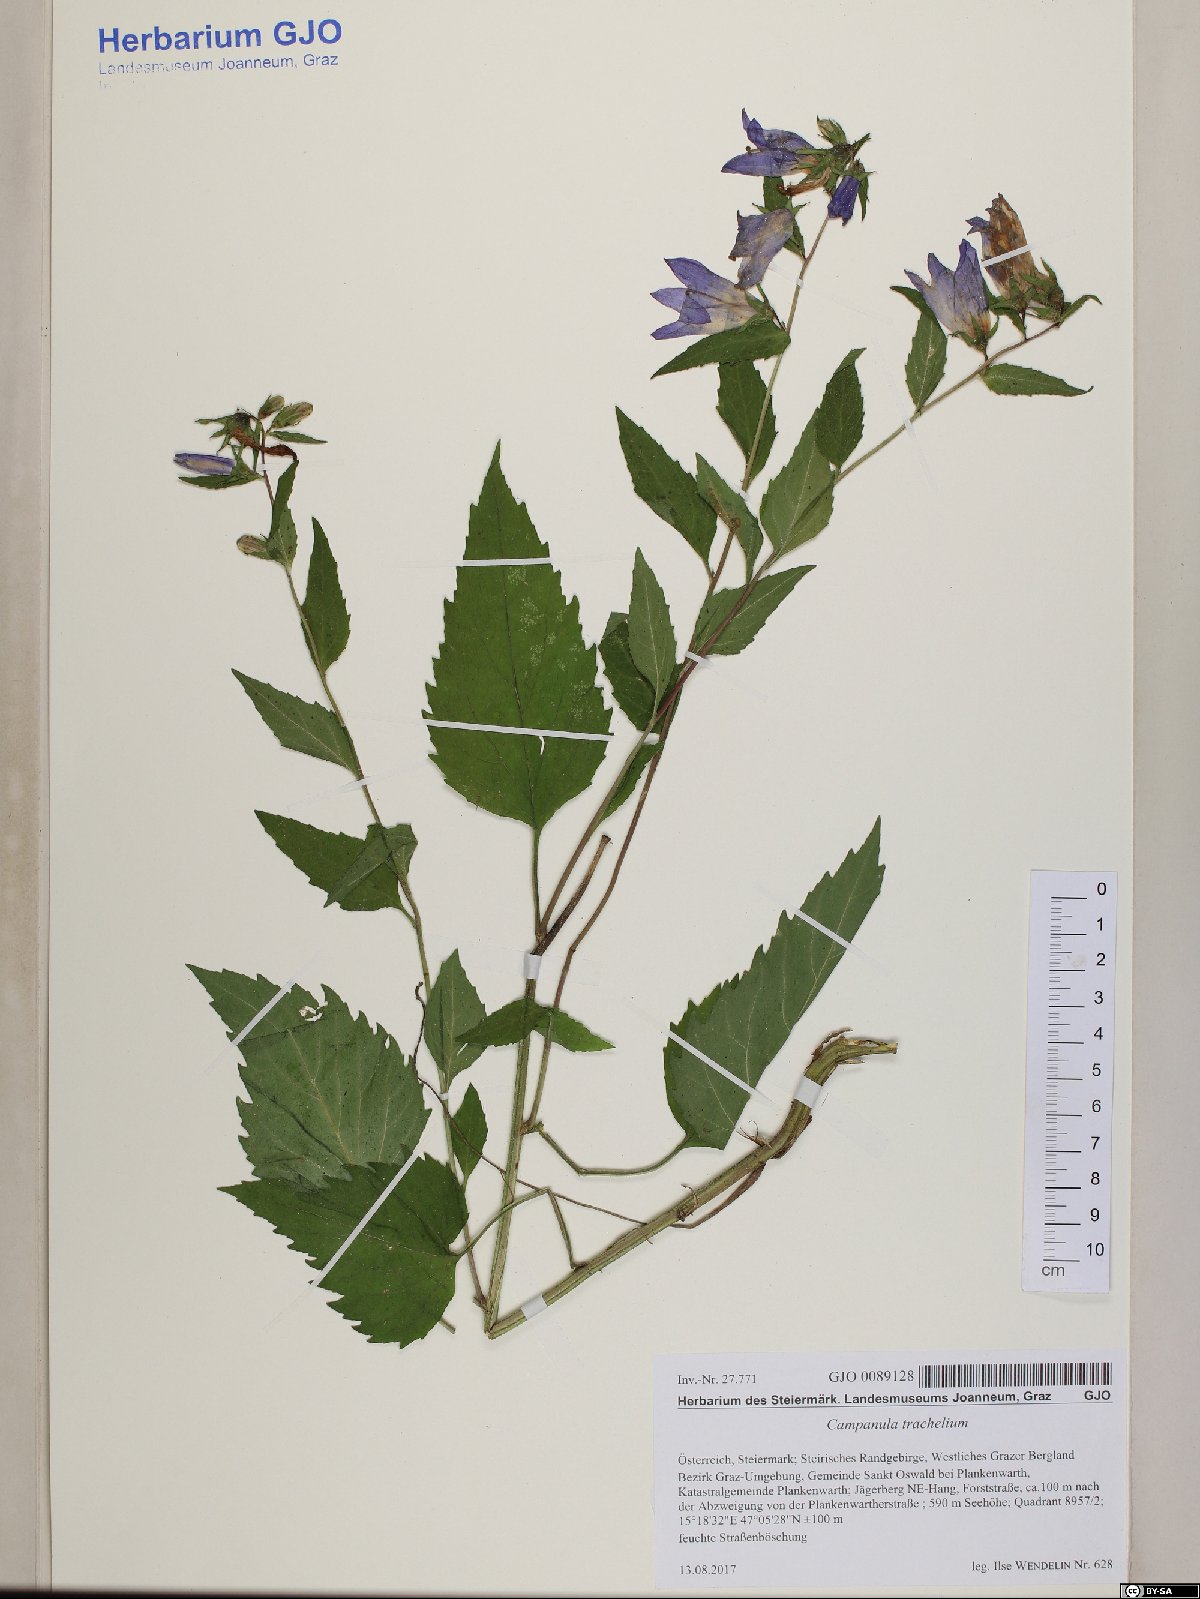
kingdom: Plantae
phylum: Tracheophyta
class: Magnoliopsida
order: Asterales
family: Campanulaceae
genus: Campanula
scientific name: Campanula trachelium
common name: Nettle-leaved bellflower
